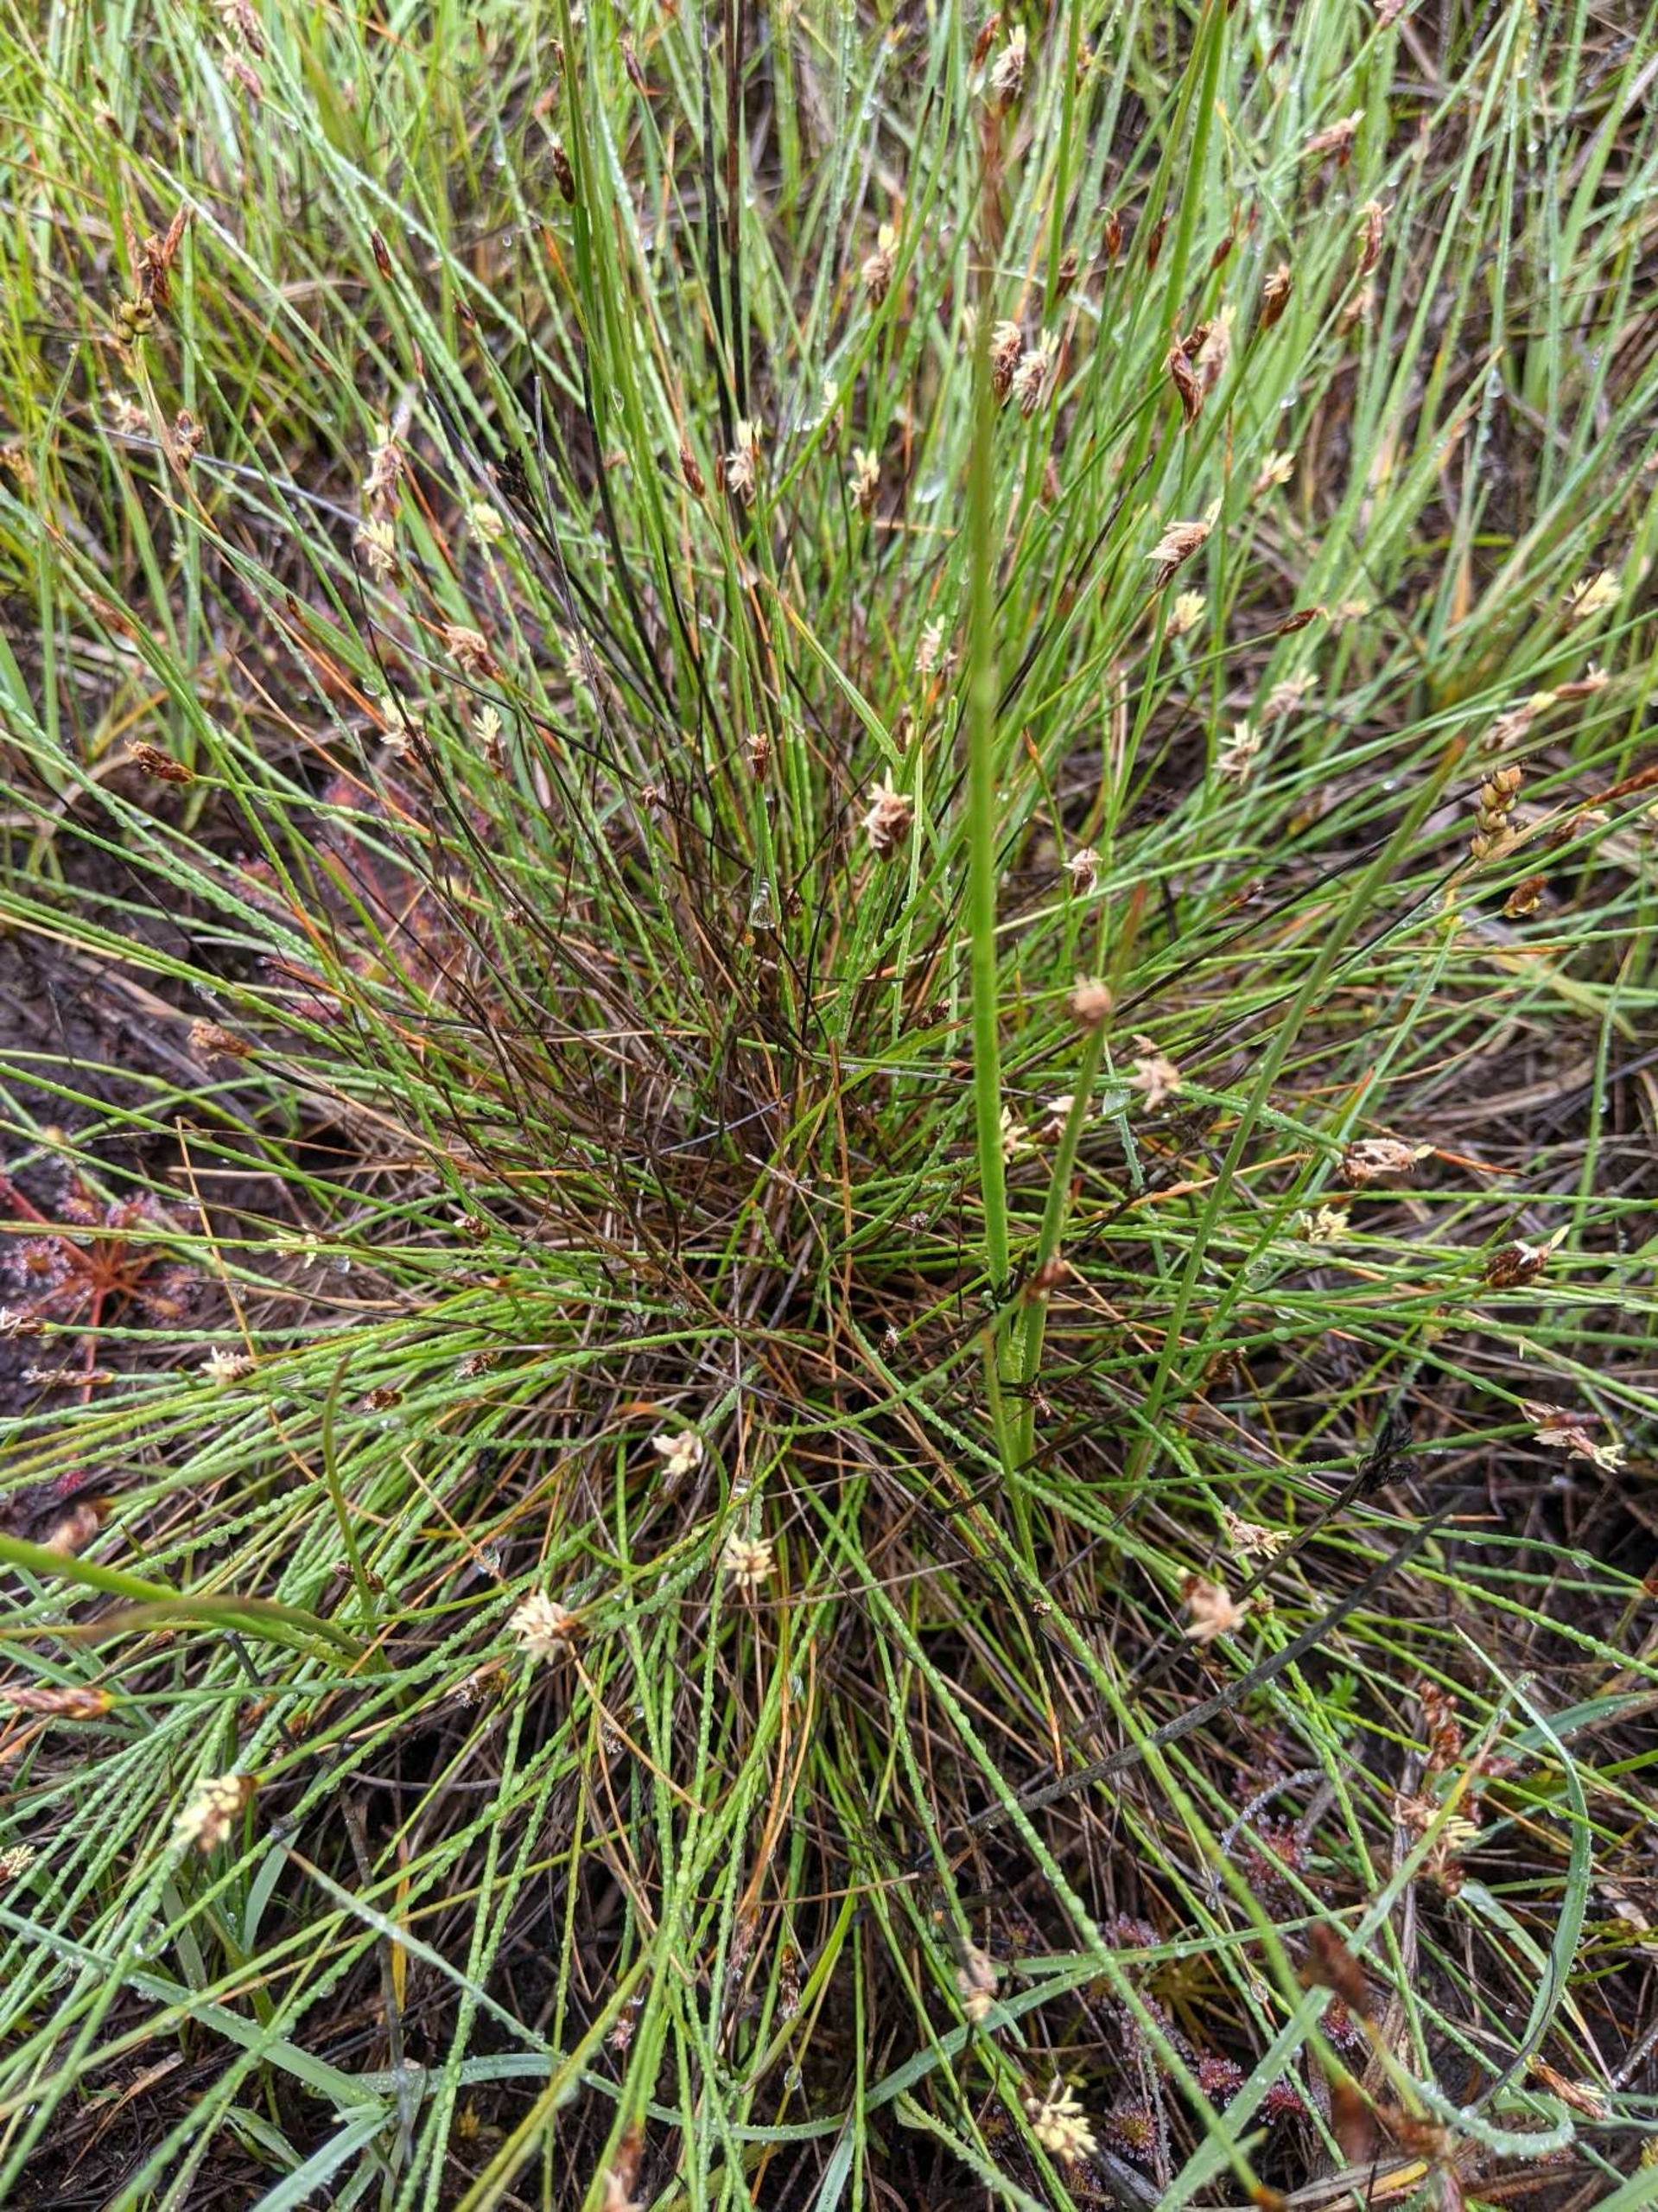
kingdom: Plantae
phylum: Tracheophyta
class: Liliopsida
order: Poales
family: Cyperaceae
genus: Eleocharis
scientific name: Eleocharis multicaulis
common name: Mangestænglet sumpstrå
